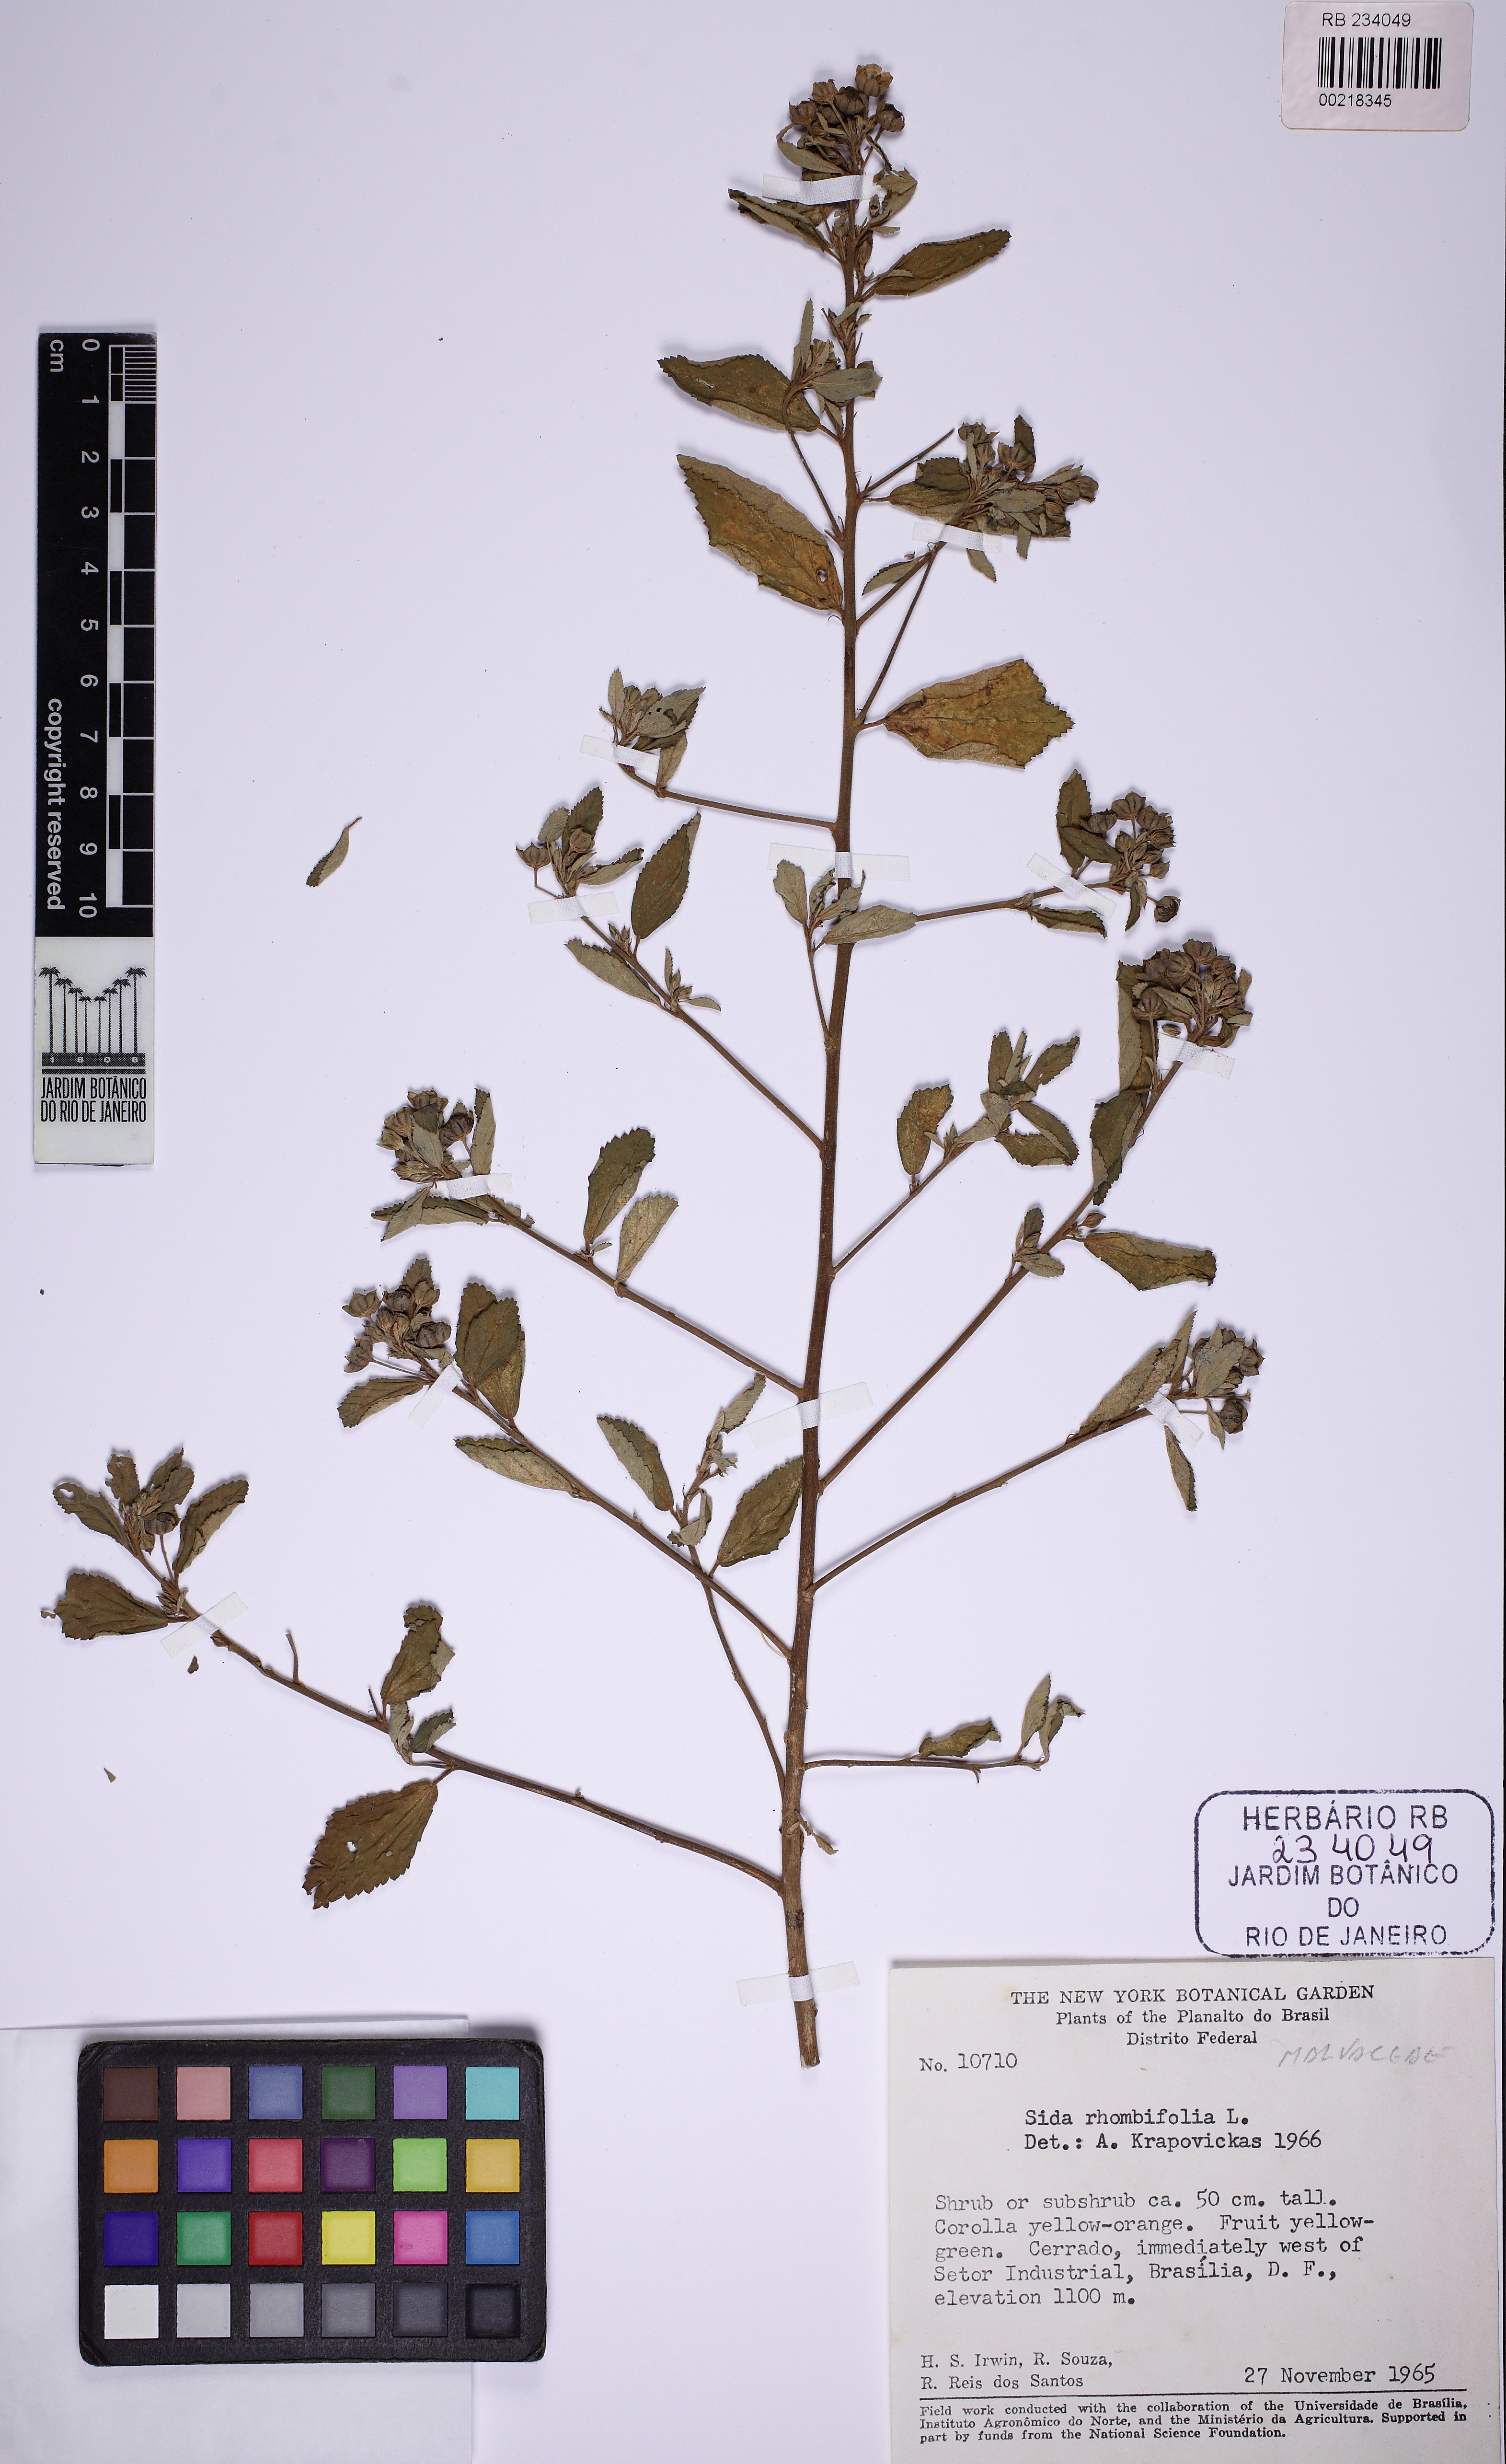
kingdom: Plantae
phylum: Tracheophyta
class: Magnoliopsida
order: Malvales
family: Malvaceae
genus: Sida
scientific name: Sida rhombifolia
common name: Queensland-hemp
